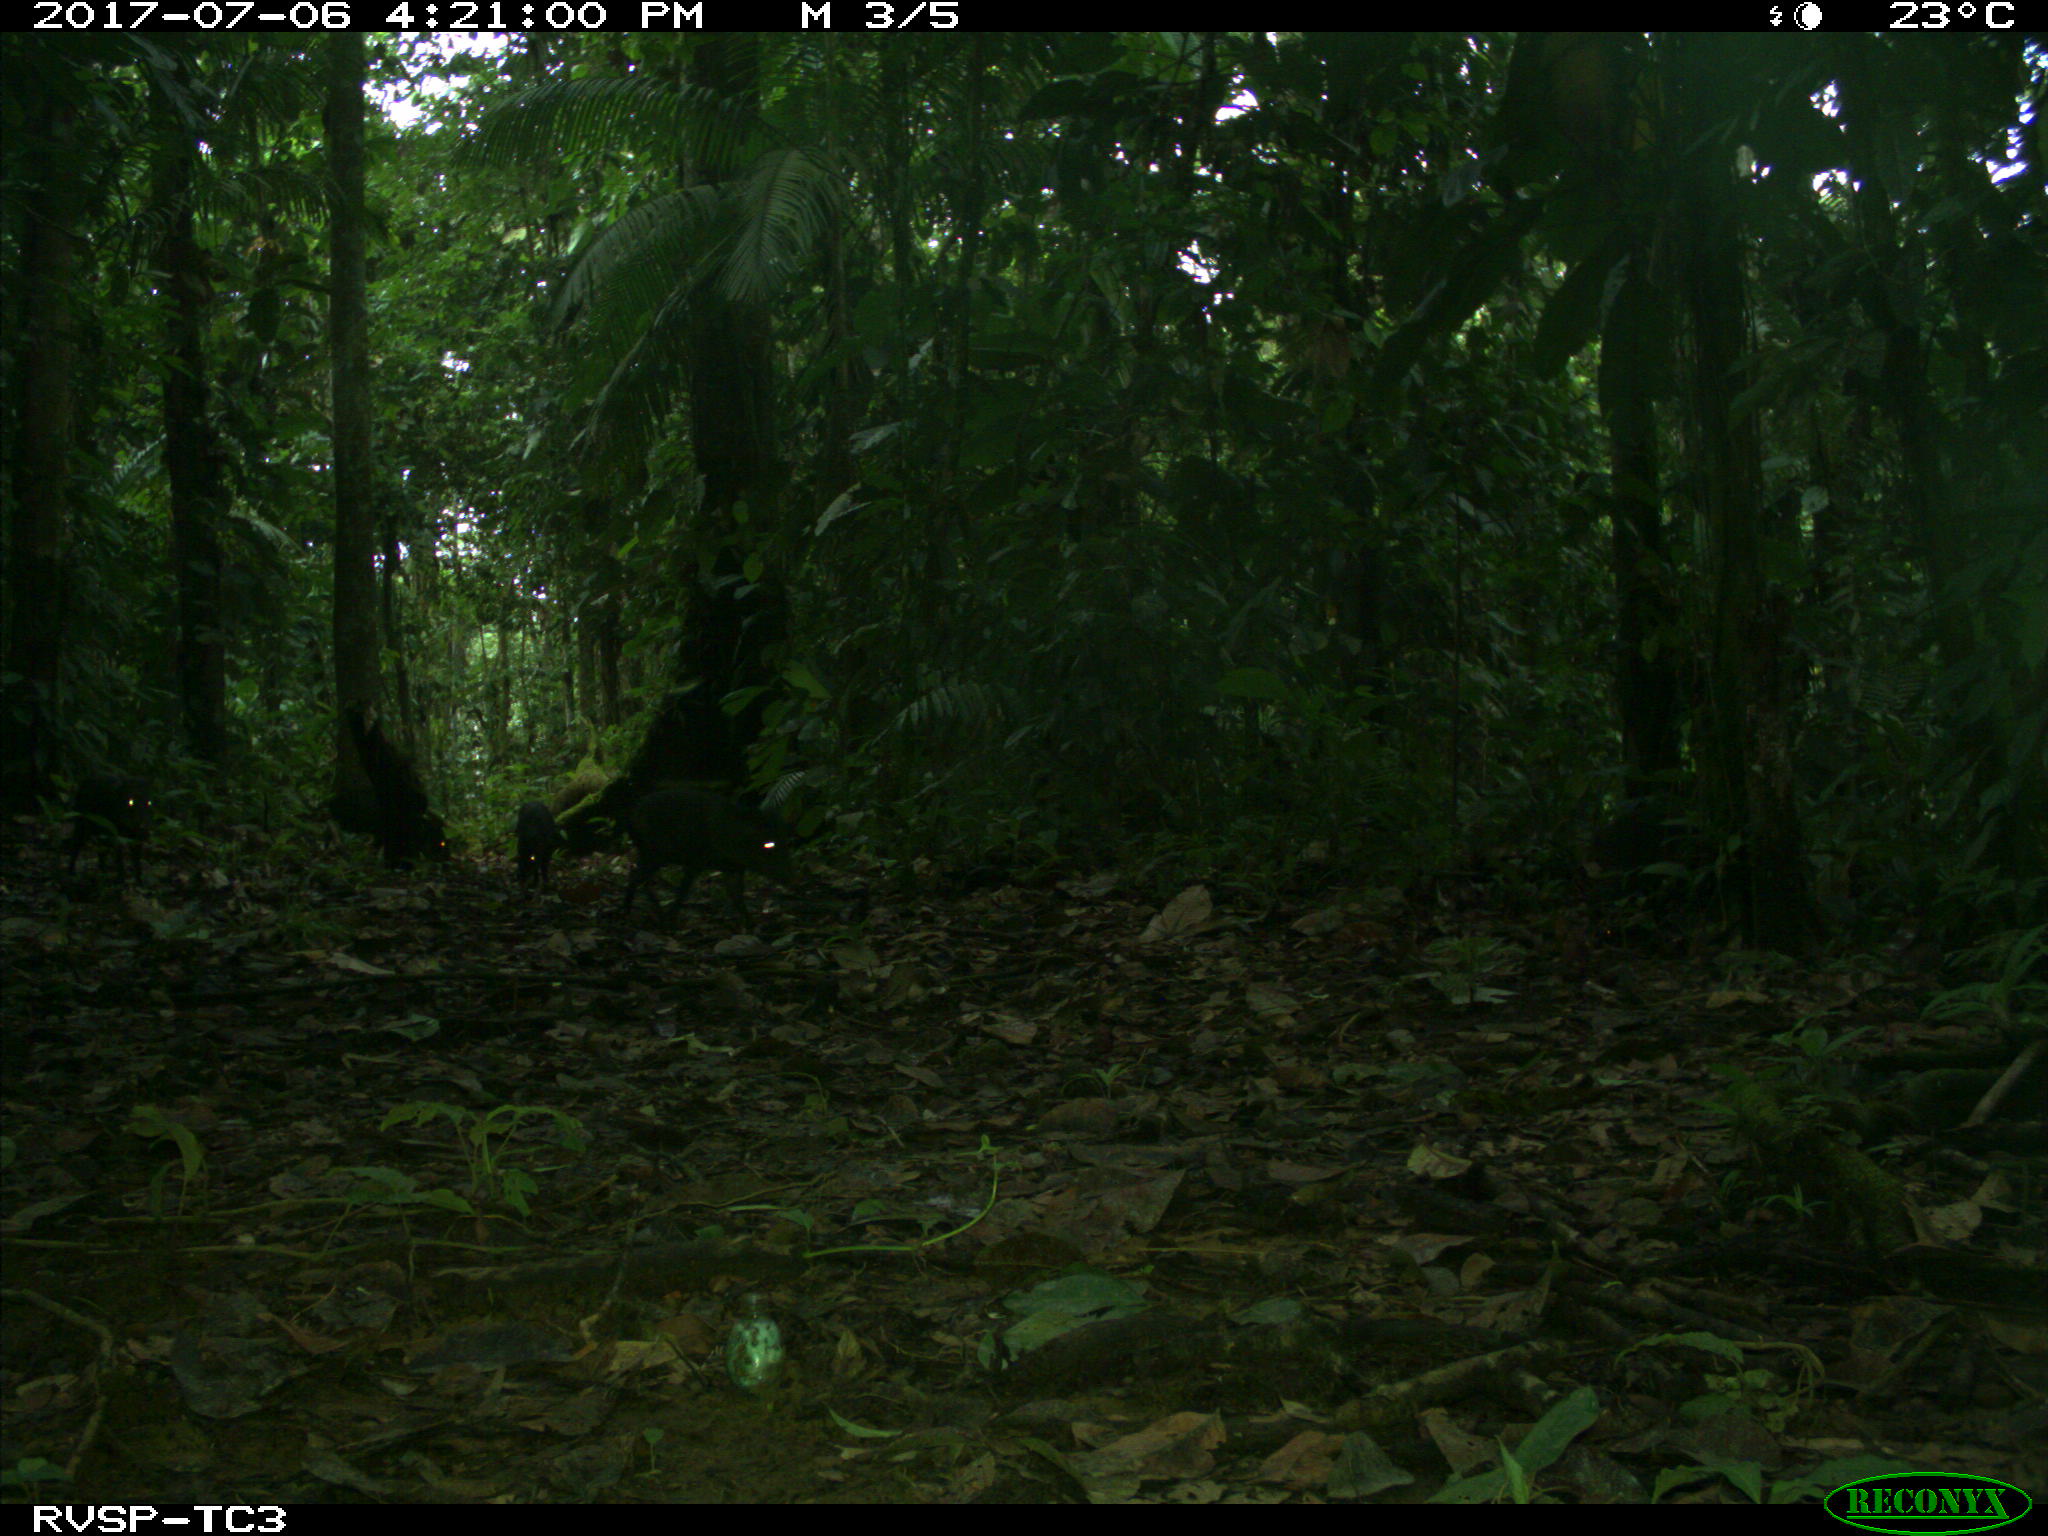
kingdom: Animalia
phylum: Chordata
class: Mammalia
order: Artiodactyla
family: Tayassuidae
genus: Pecari
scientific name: Pecari tajacu
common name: Collared peccary
